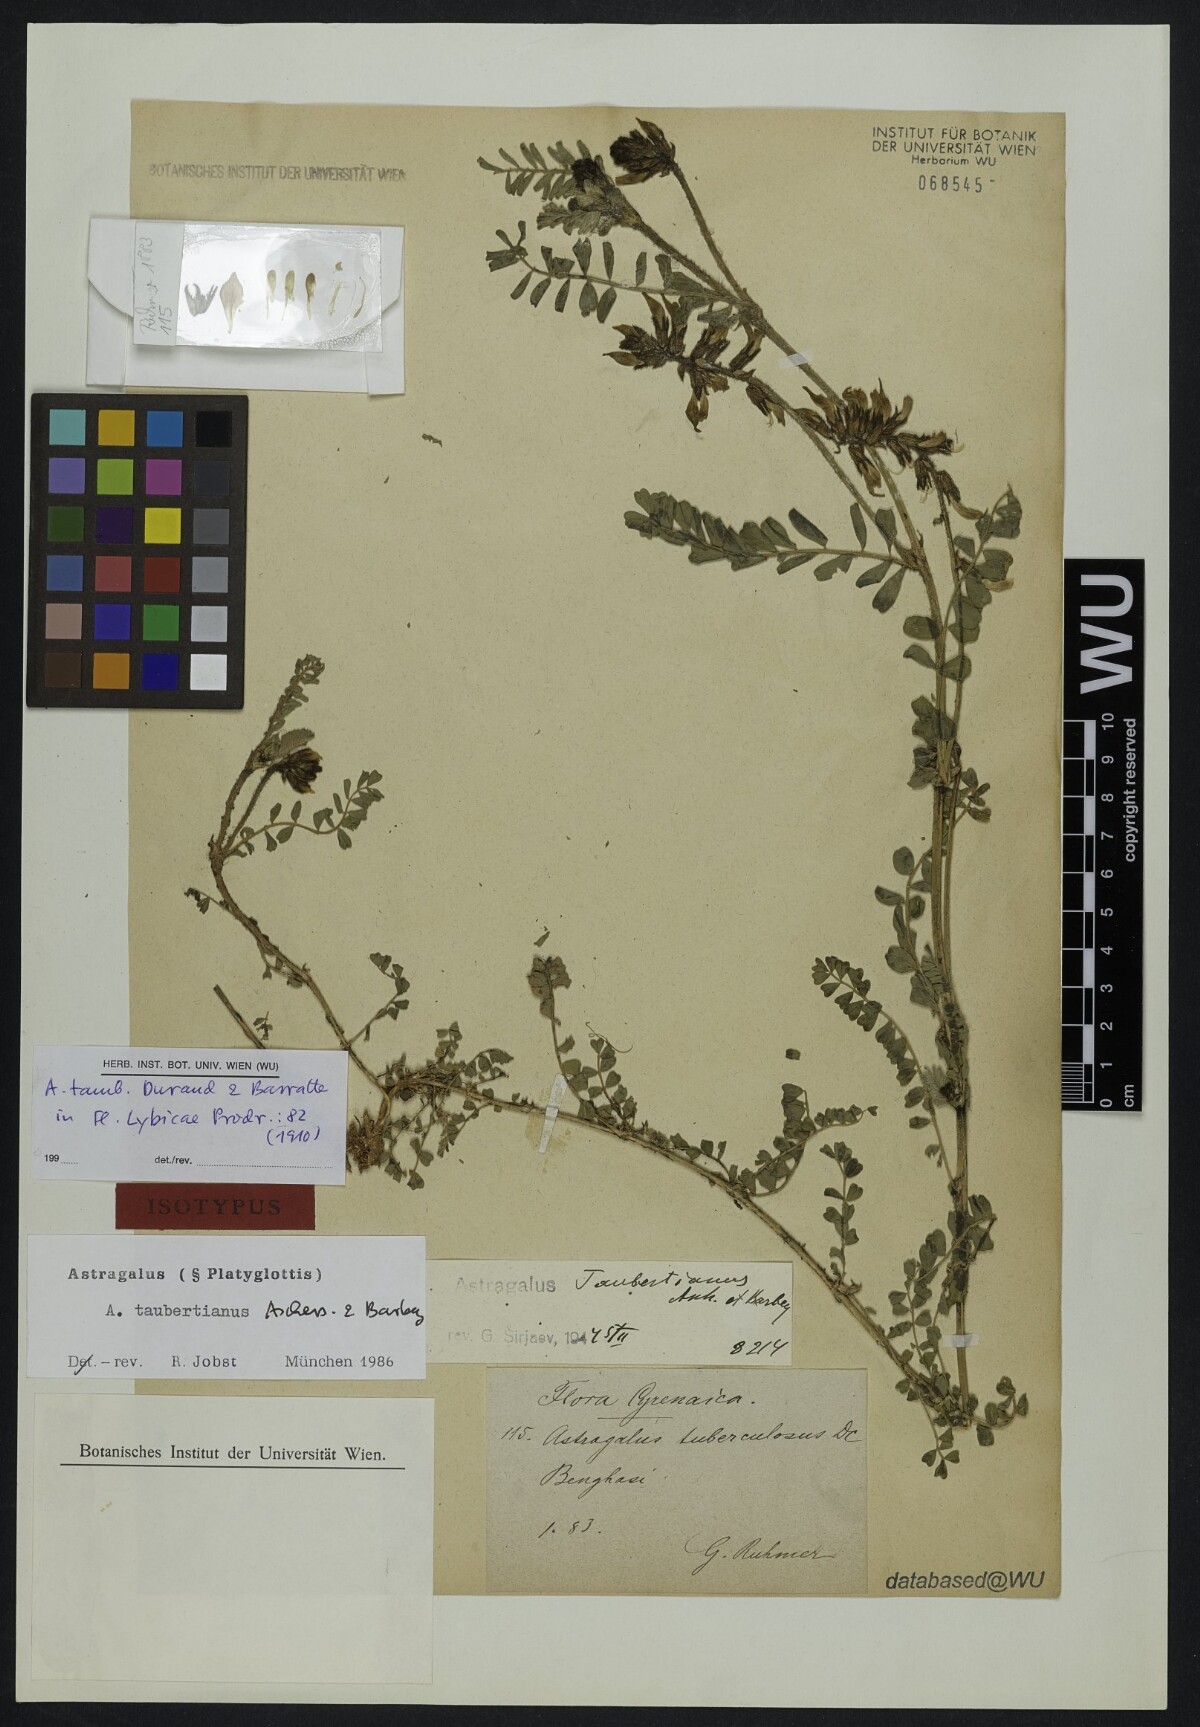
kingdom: Plantae
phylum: Tracheophyta
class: Magnoliopsida
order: Fabales
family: Fabaceae
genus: Astragalus
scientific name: Astragalus taubertianus
